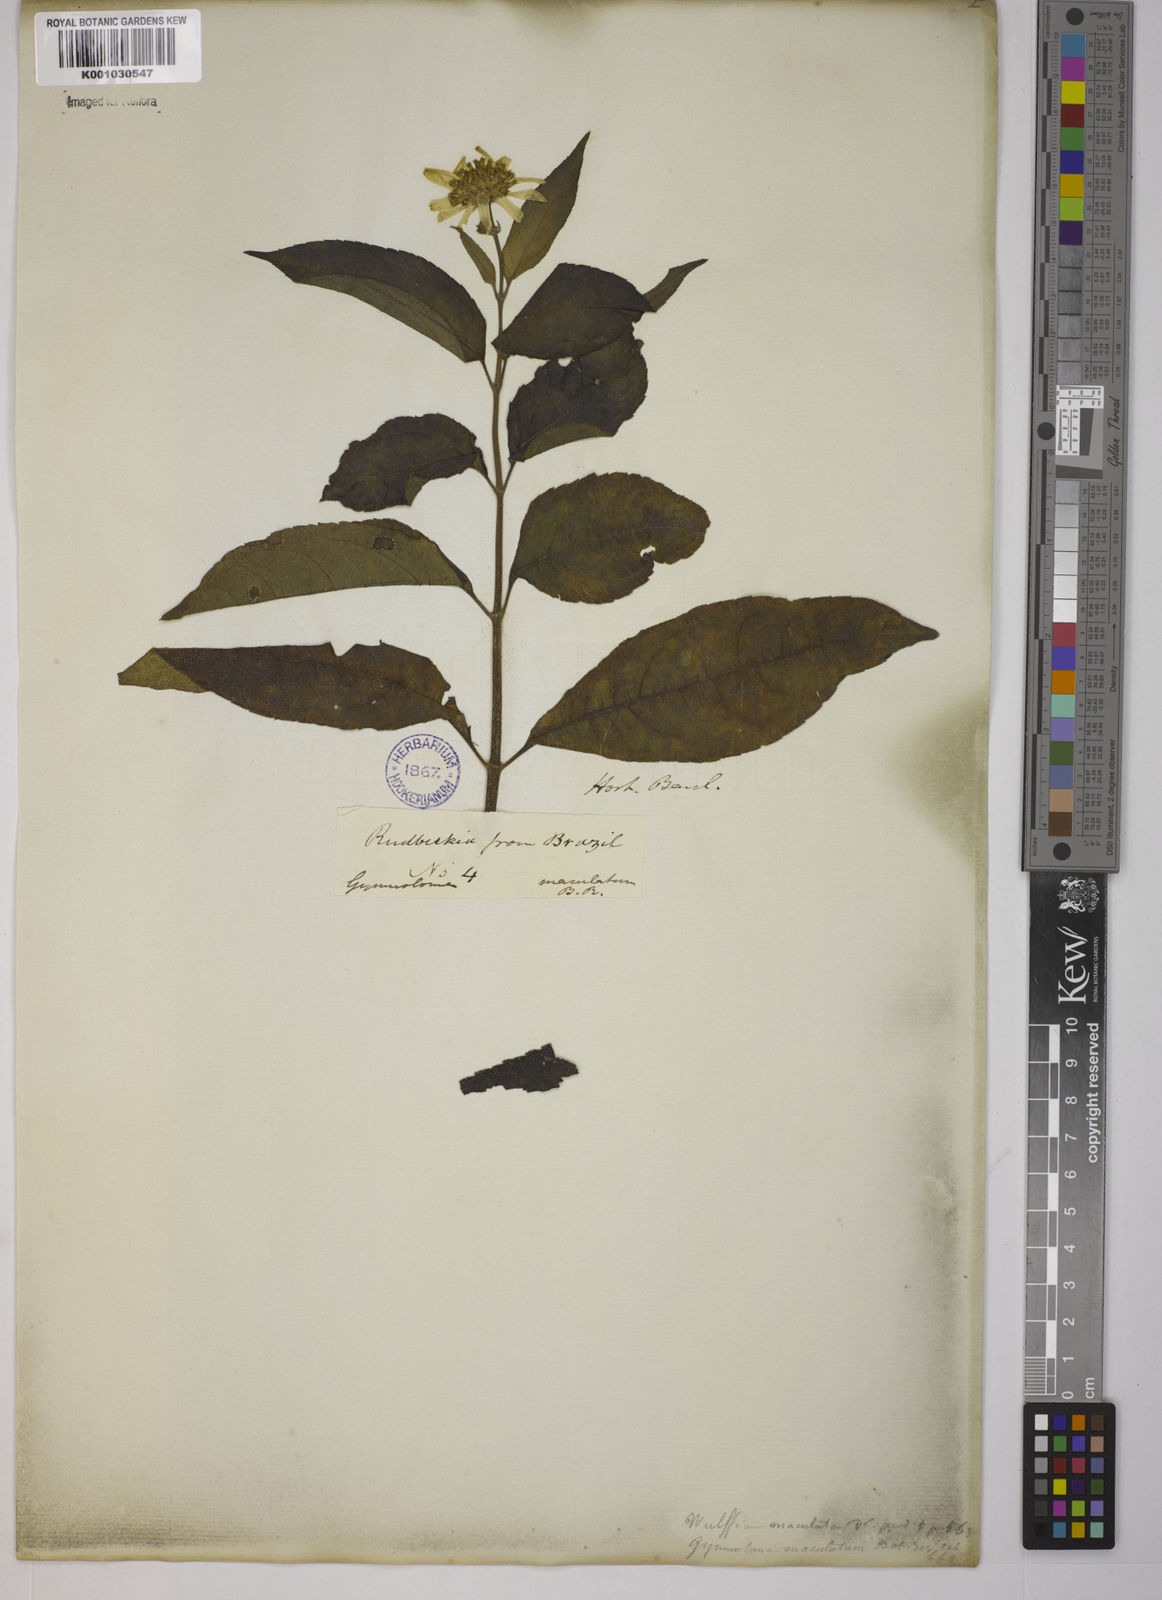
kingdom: Plantae
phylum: Tracheophyta
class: Magnoliopsida
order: Asterales
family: Asteraceae
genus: Tilesia
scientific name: Tilesia baccata
